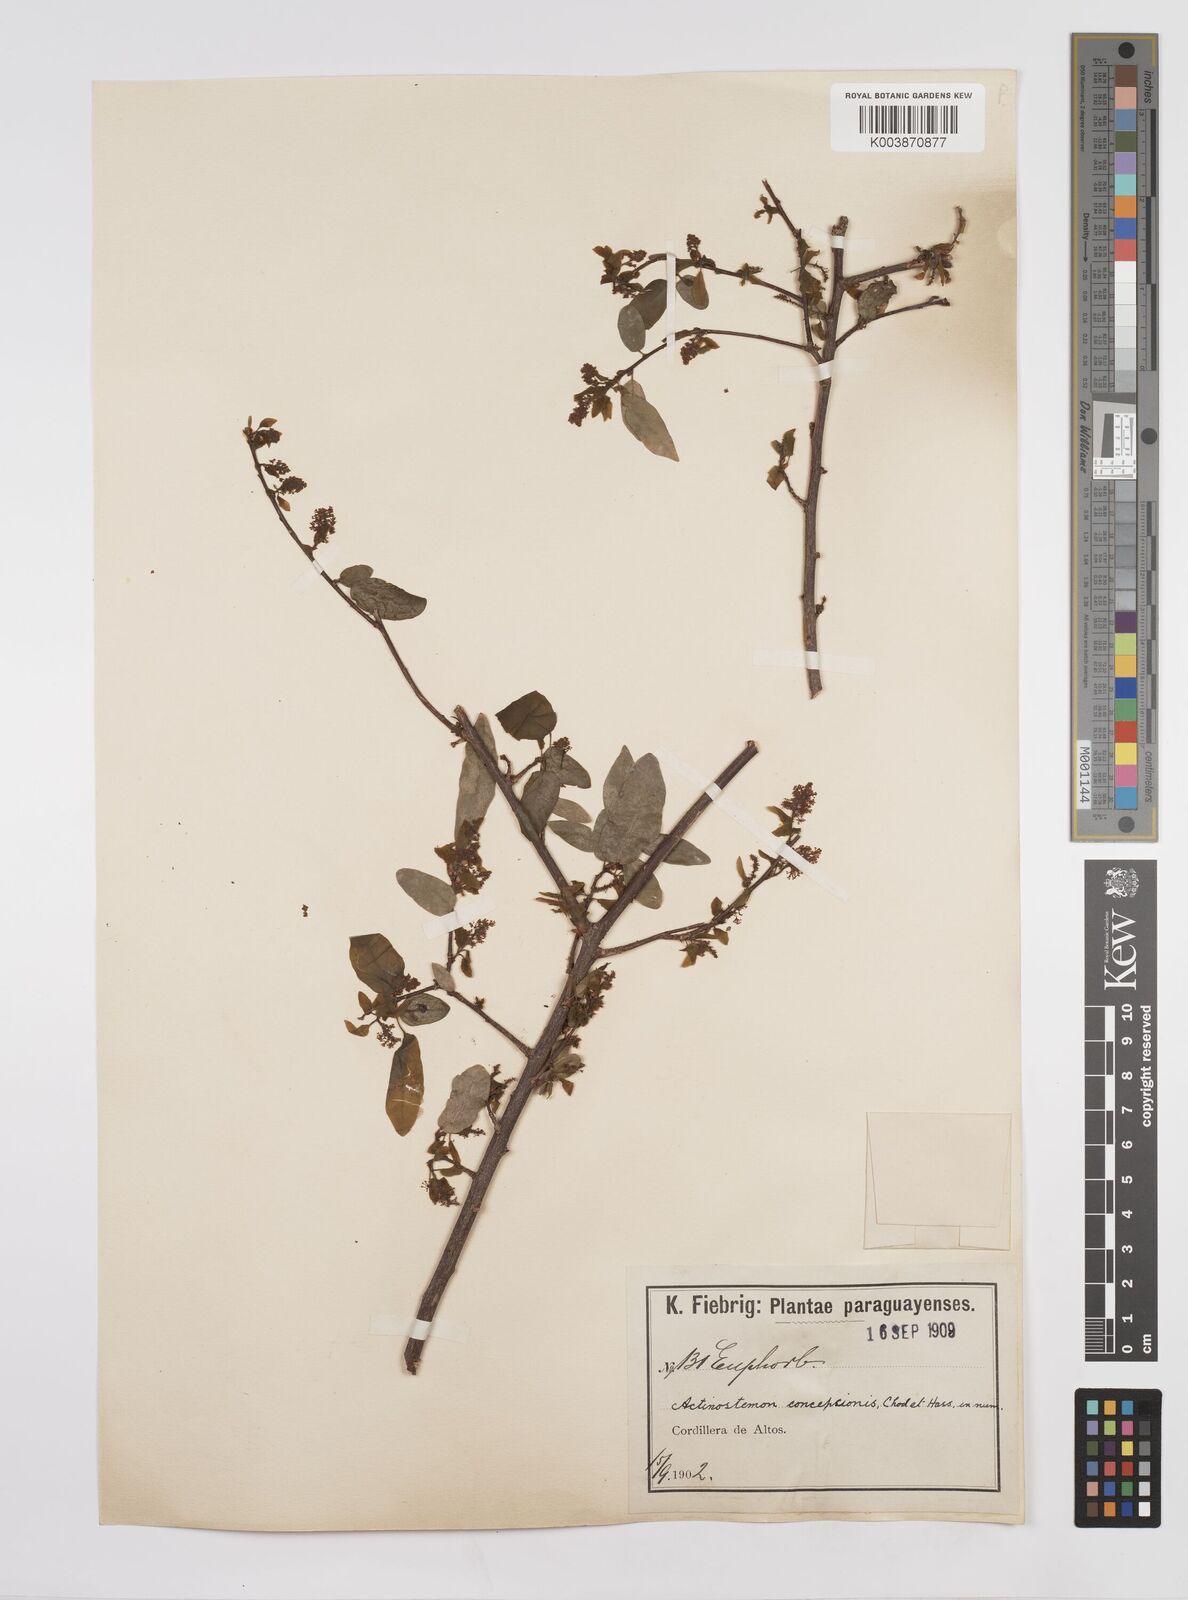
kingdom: Plantae
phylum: Tracheophyta
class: Magnoliopsida
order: Malpighiales
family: Euphorbiaceae
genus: Actinostemon
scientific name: Actinostemon concepcionis
